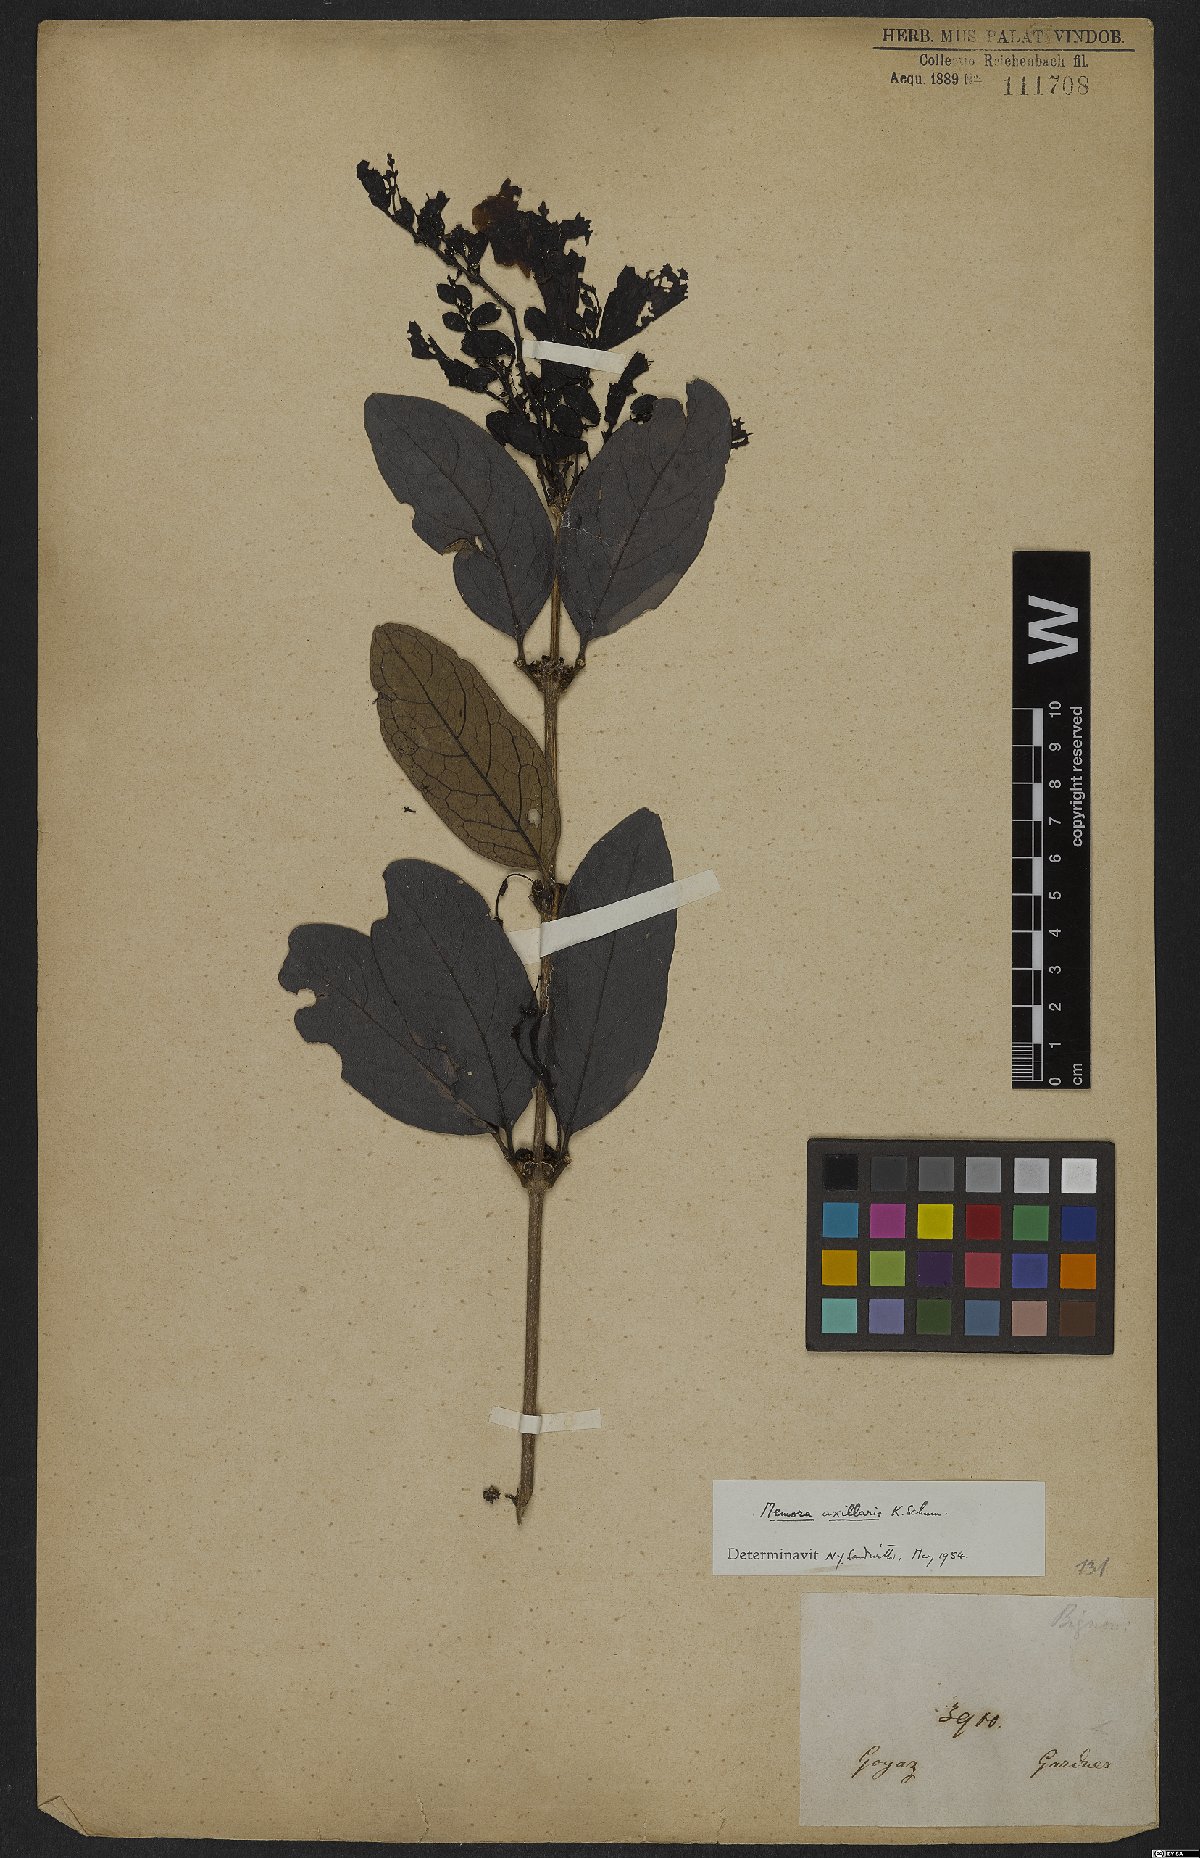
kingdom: Plantae
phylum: Tracheophyta
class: Magnoliopsida
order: Lamiales
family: Bignoniaceae
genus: Adenocalymma
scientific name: Adenocalymma axillare
